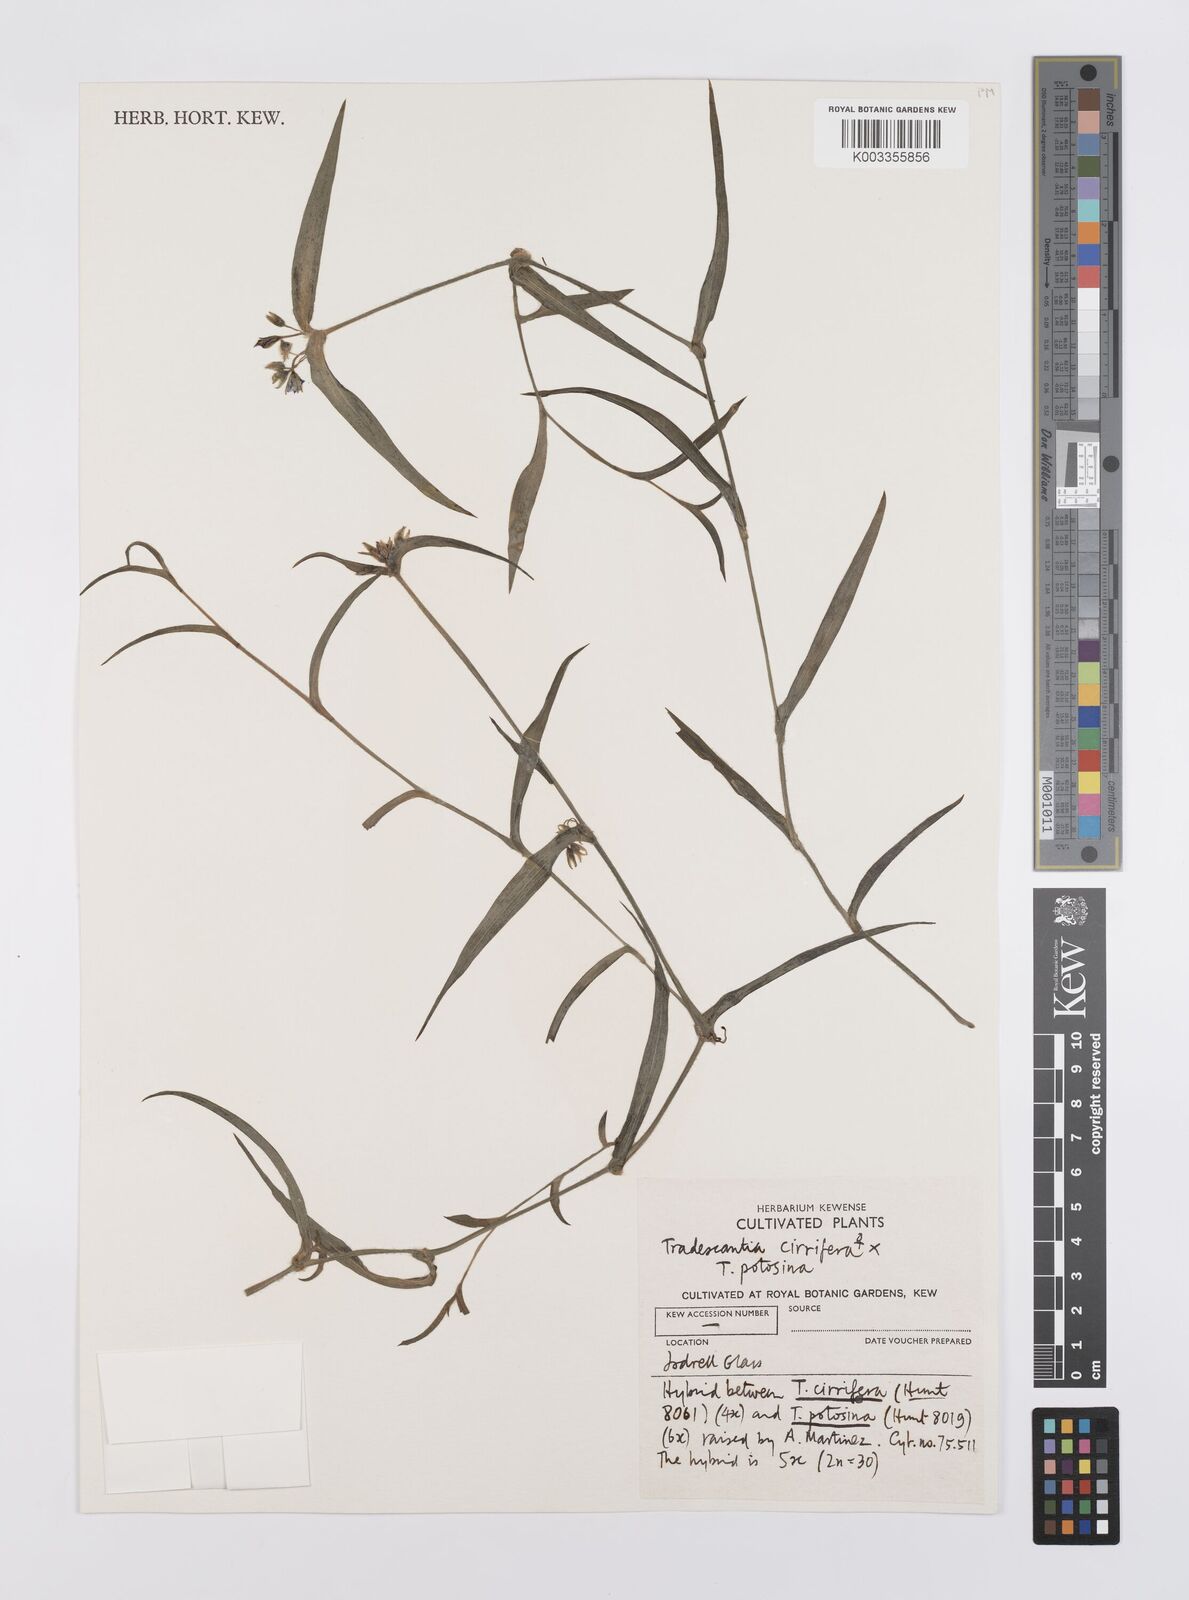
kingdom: Plantae
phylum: Tracheophyta
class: Liliopsida
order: Commelinales
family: Commelinaceae
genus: Tradescantia
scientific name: Tradescantia cirrifera
